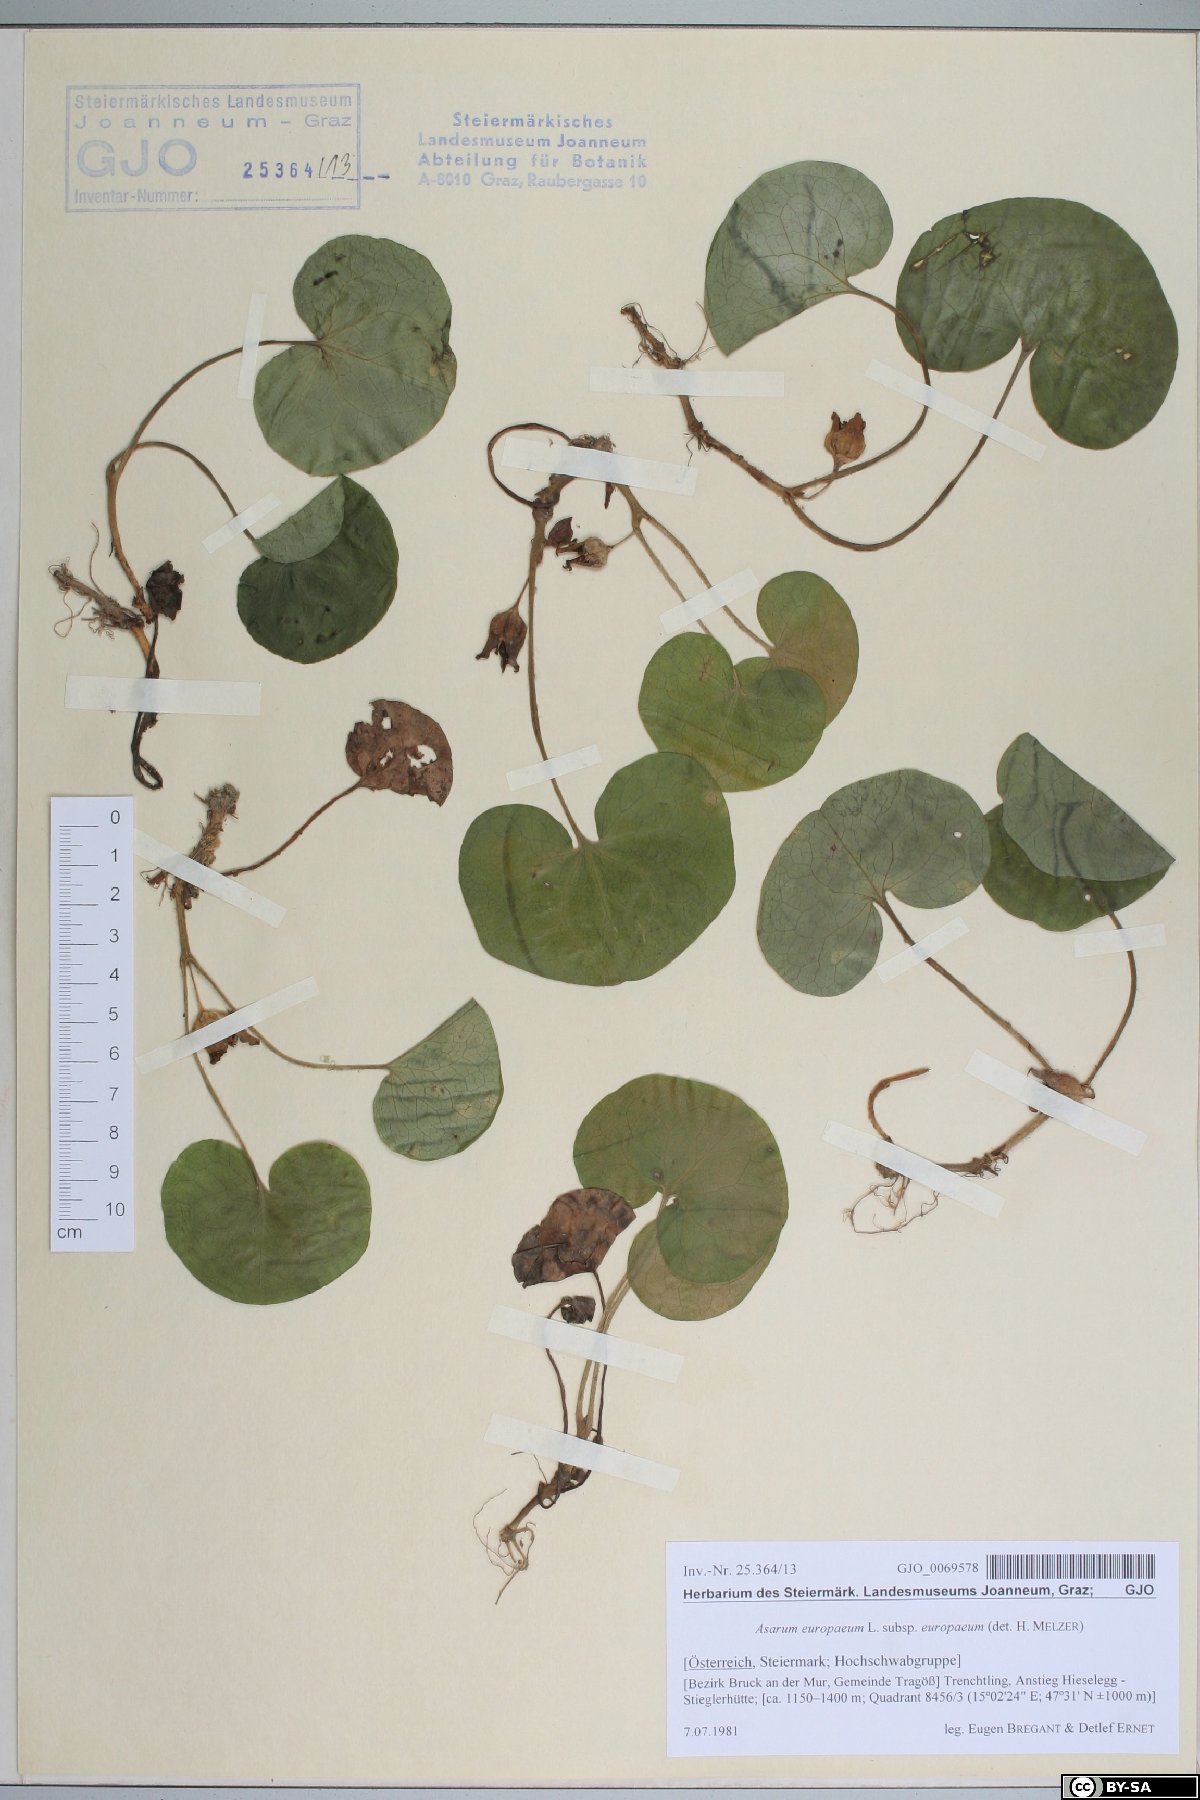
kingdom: Plantae
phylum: Tracheophyta
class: Magnoliopsida
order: Piperales
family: Aristolochiaceae
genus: Asarum
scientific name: Asarum europaeum
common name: Asarabacca
